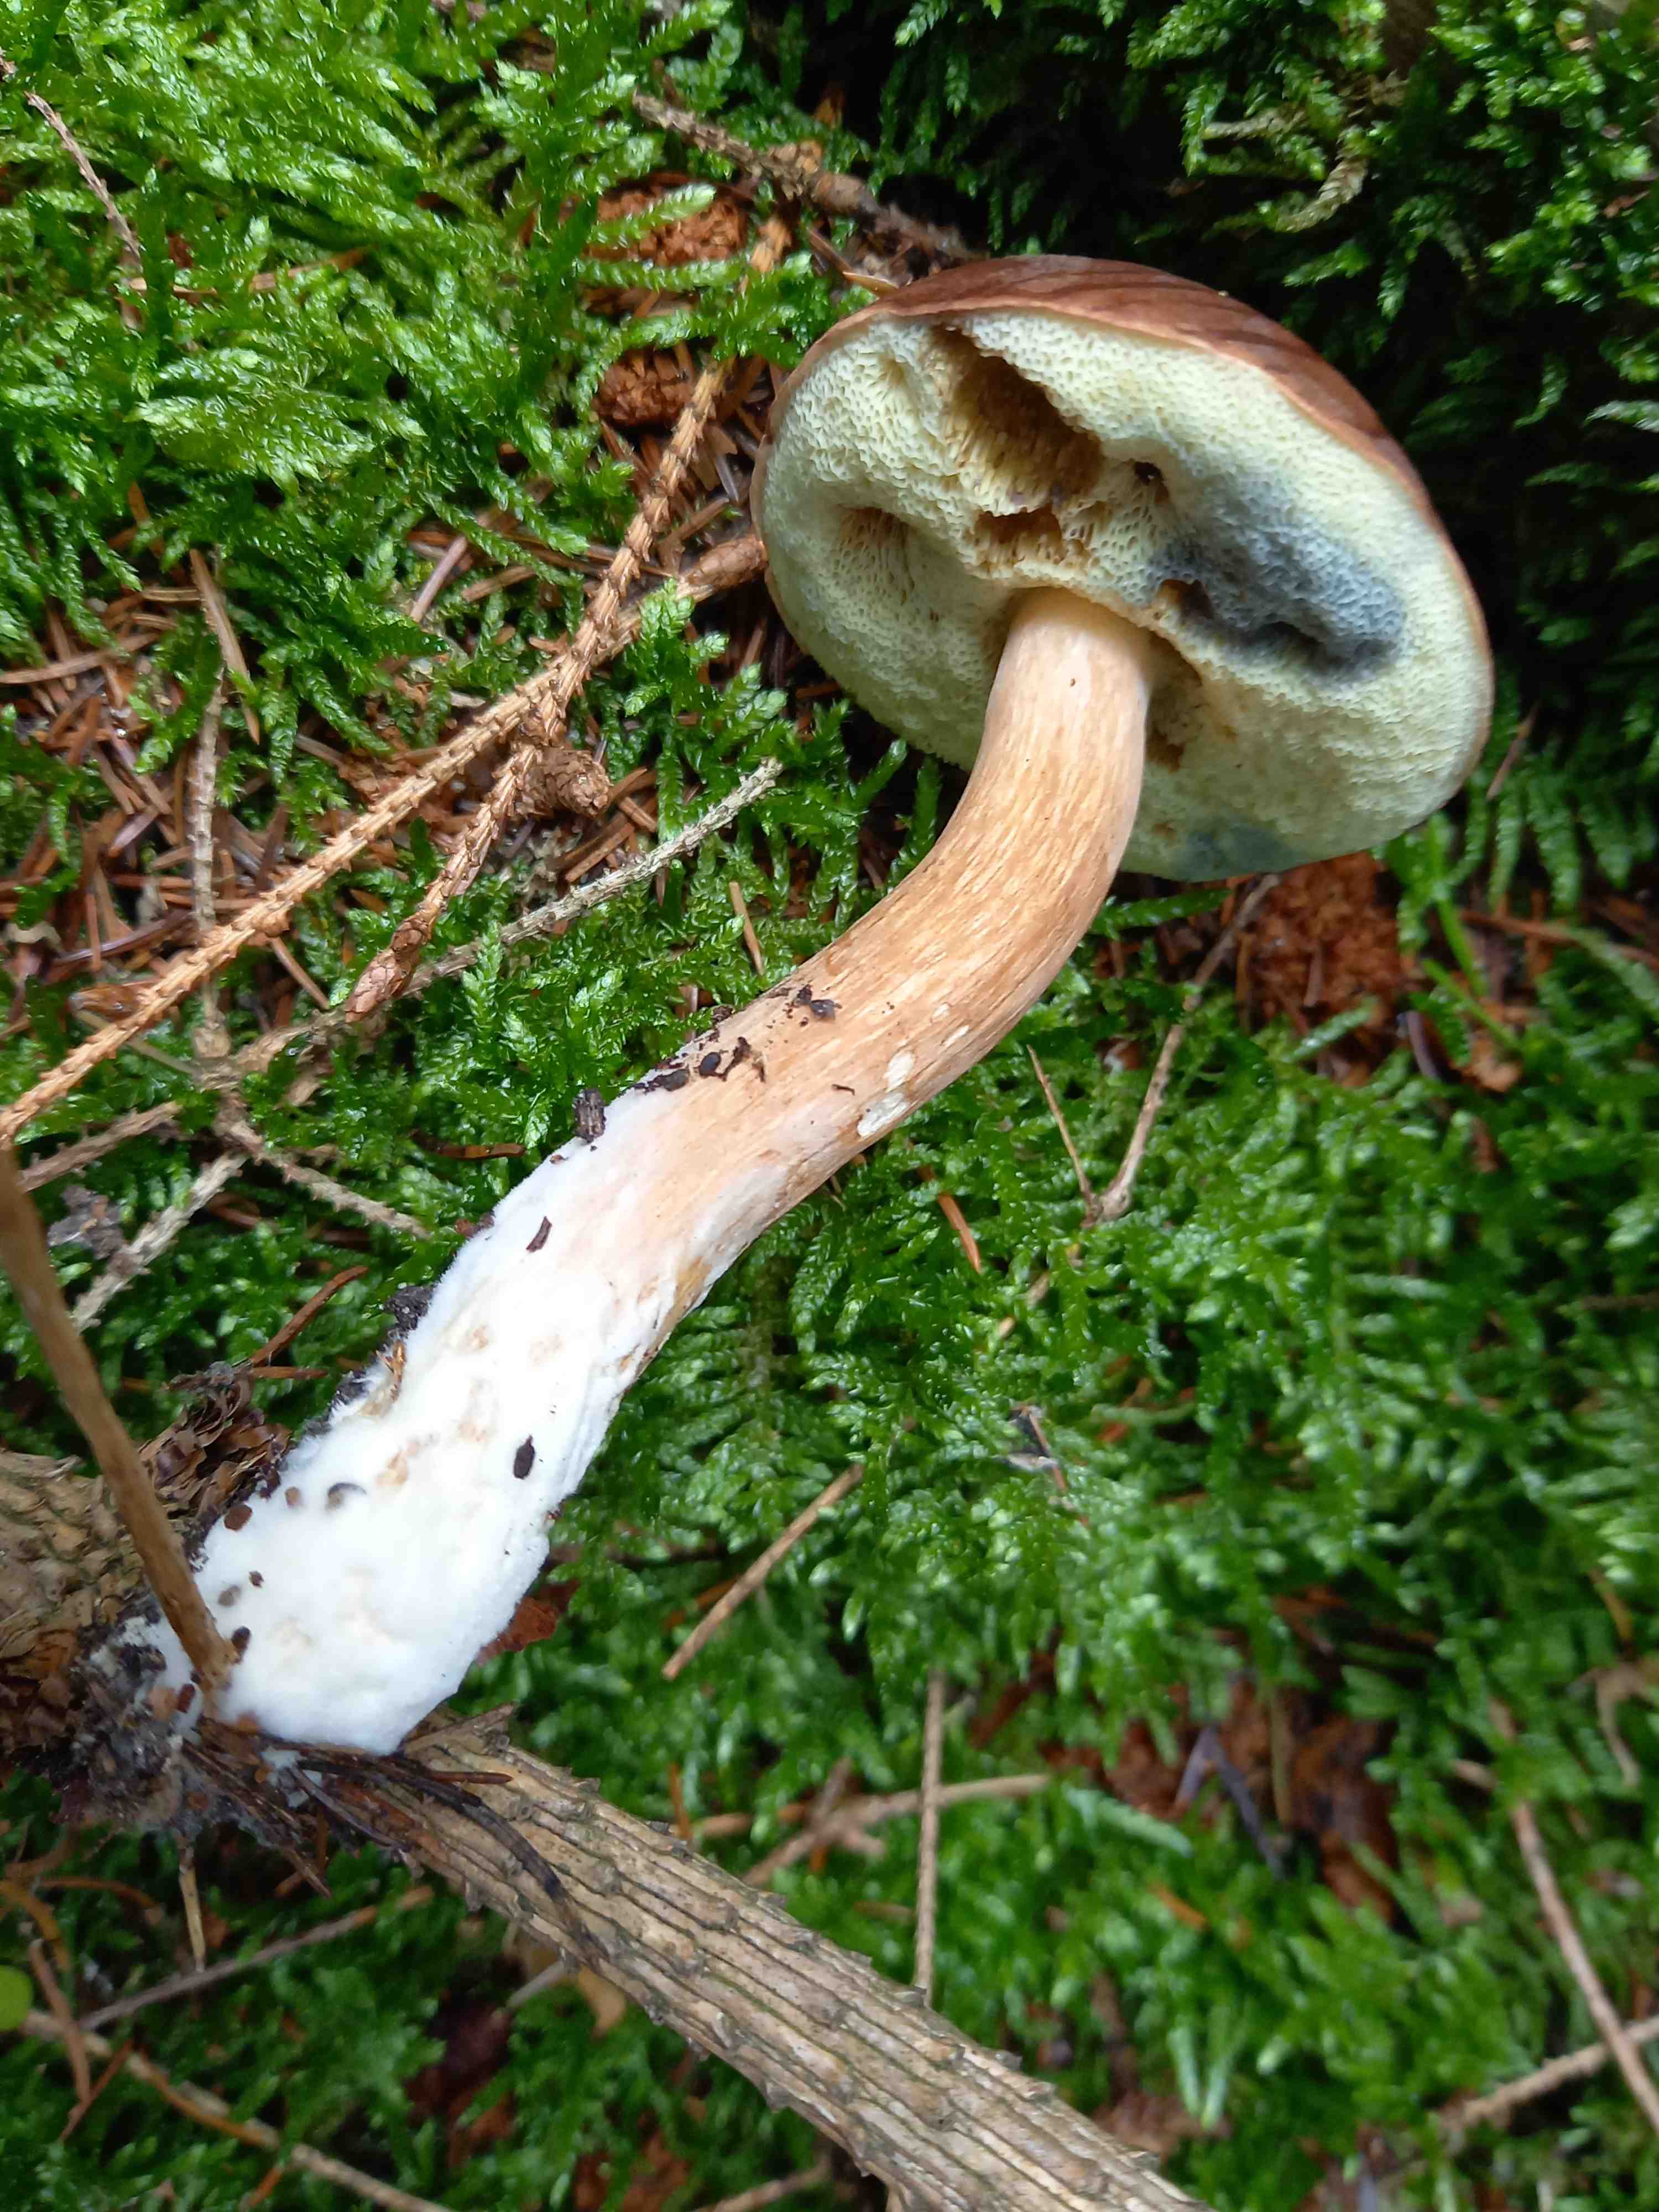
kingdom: Fungi
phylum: Basidiomycota
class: Agaricomycetes
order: Boletales
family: Boletaceae
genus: Imleria
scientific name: Imleria badia
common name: brunstokket rørhat
